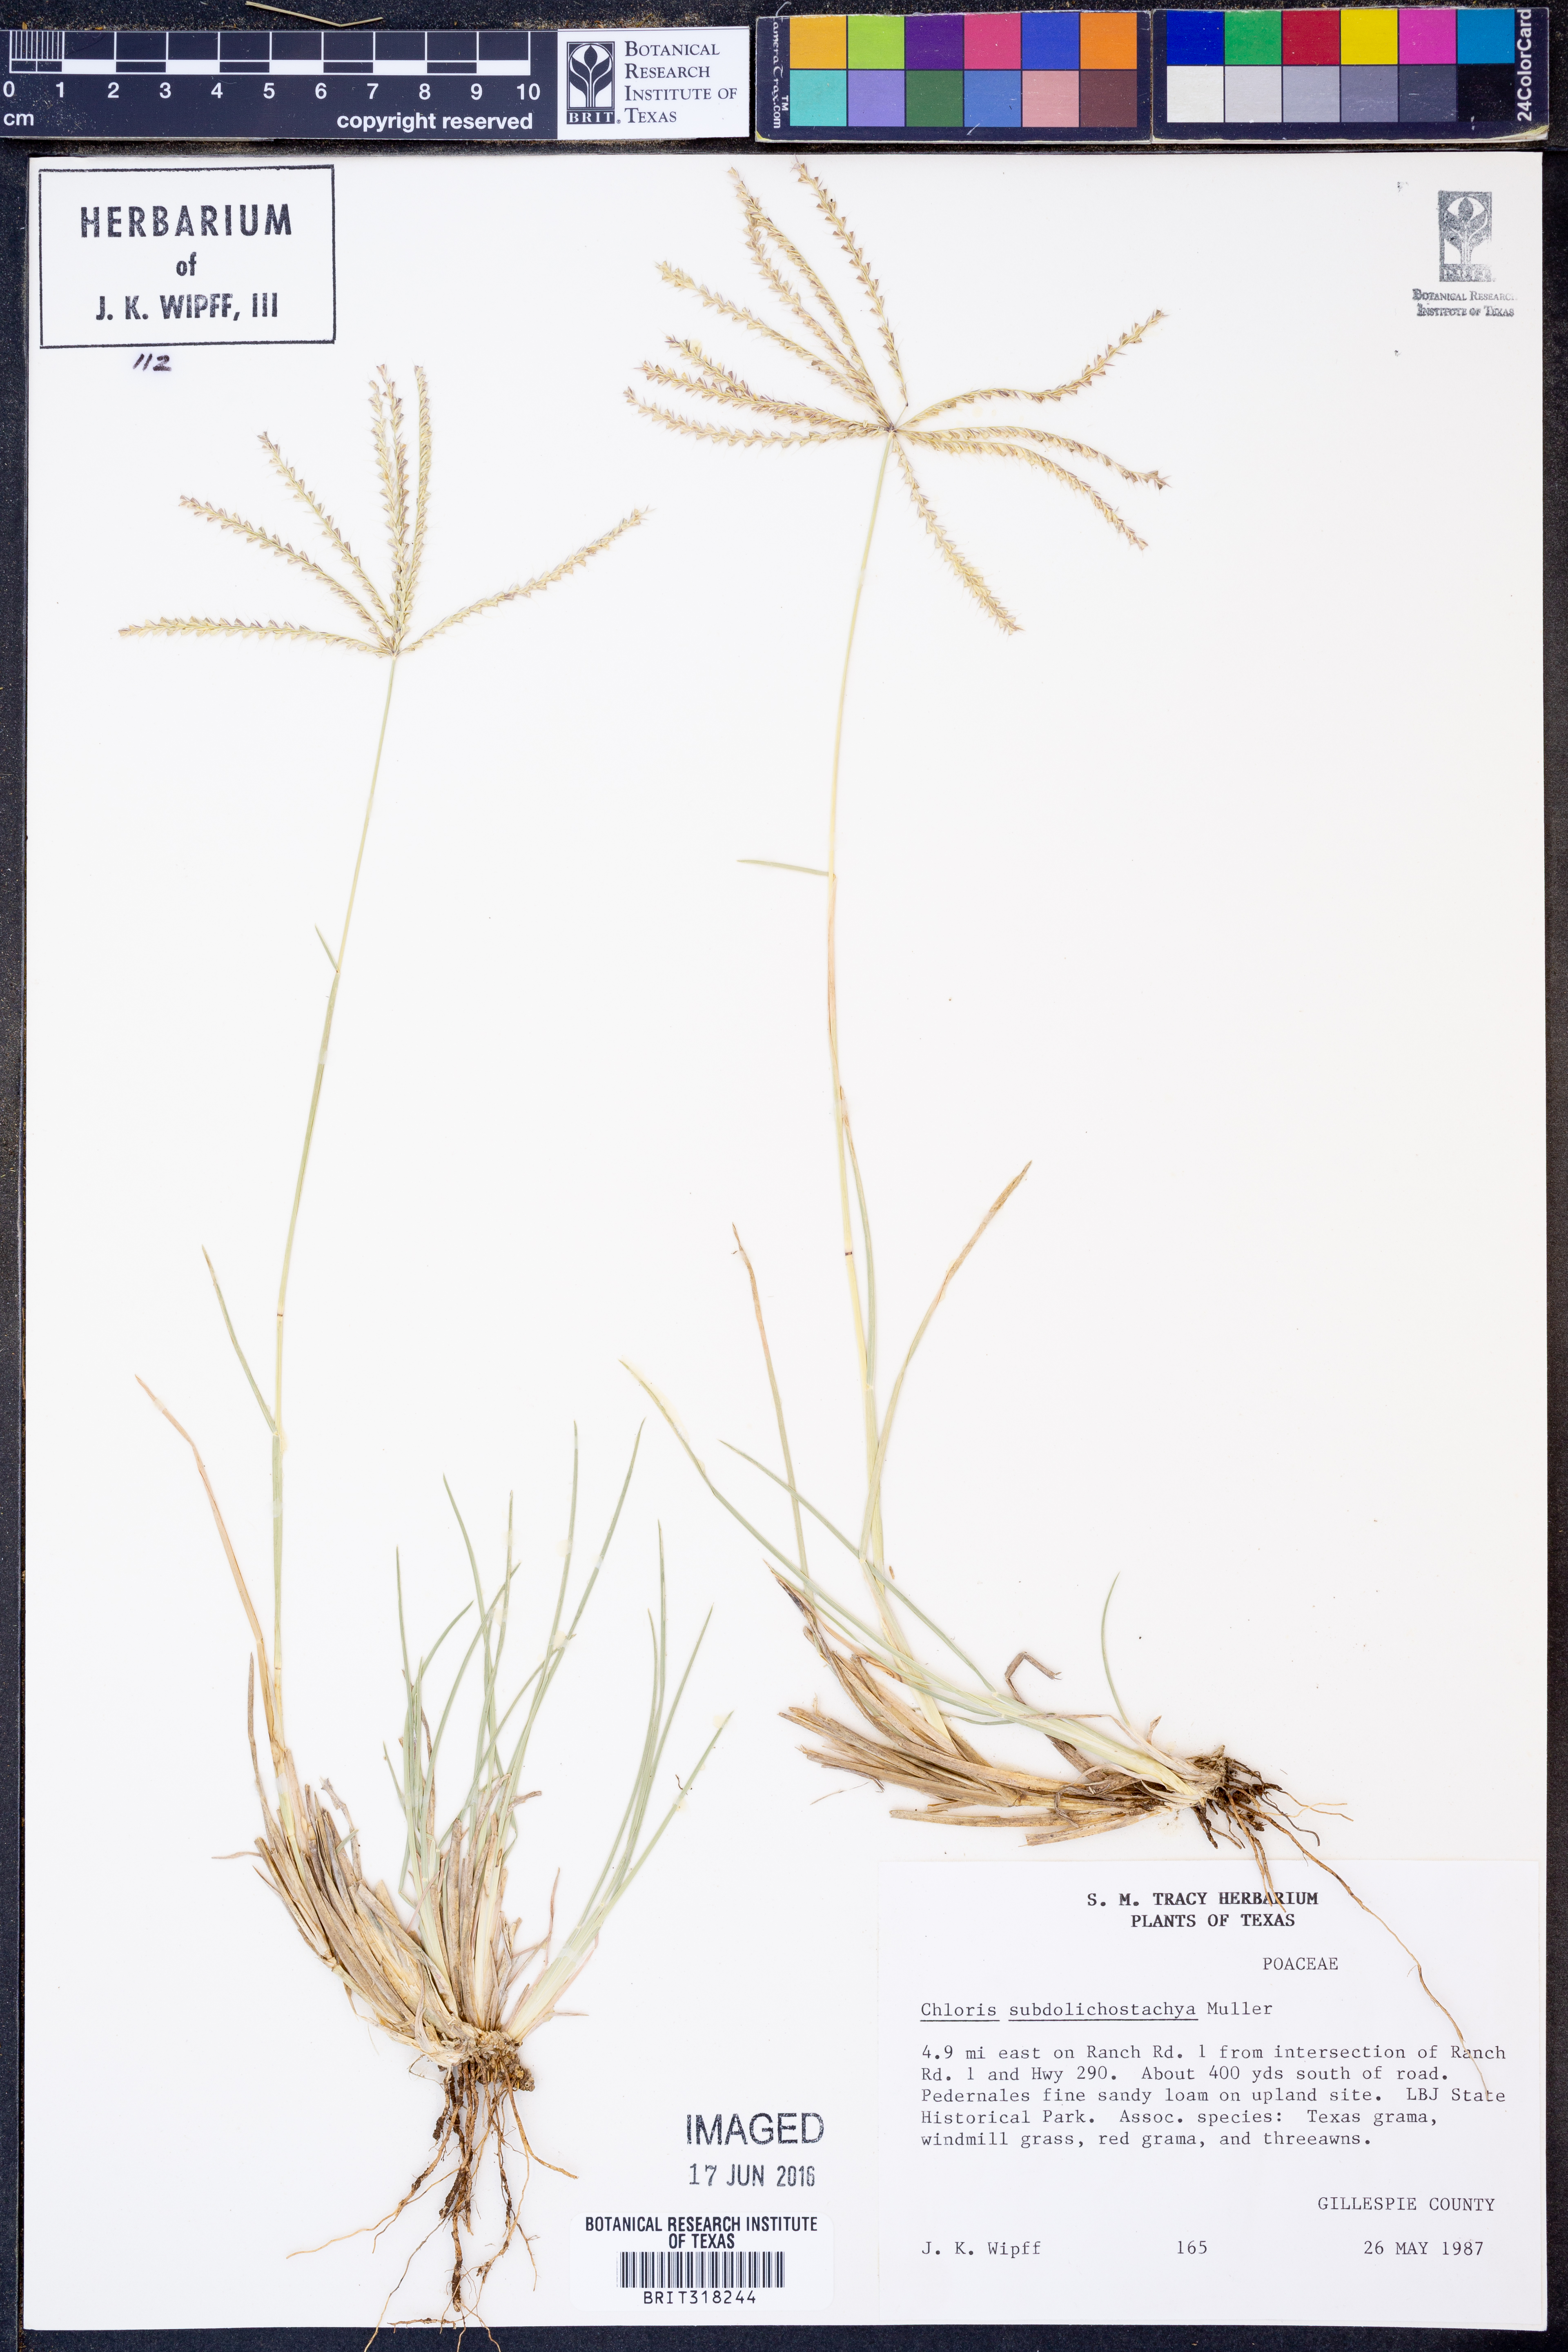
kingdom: Plantae
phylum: Tracheophyta
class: Liliopsida
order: Poales
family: Poaceae
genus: Chloris
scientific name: Chloris subdolichostachya
